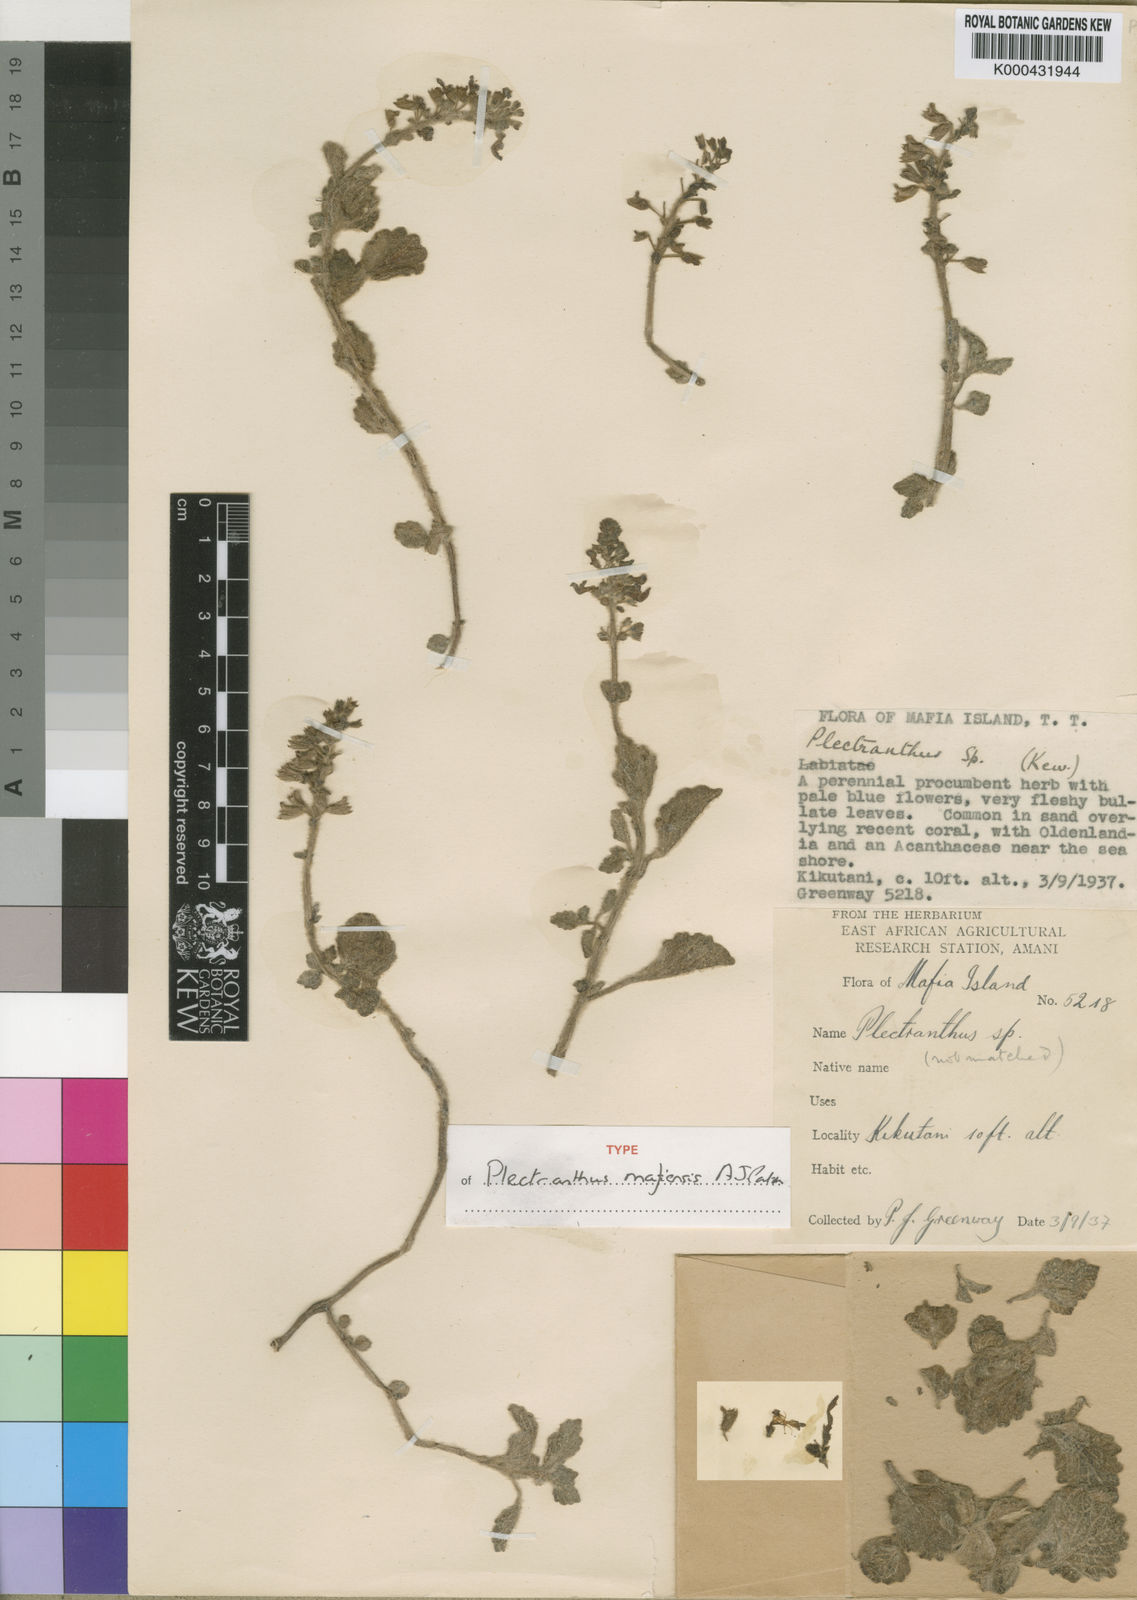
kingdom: Plantae
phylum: Tracheophyta
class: Magnoliopsida
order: Lamiales
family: Lamiaceae
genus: Equilabium
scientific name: Equilabium mafiense
